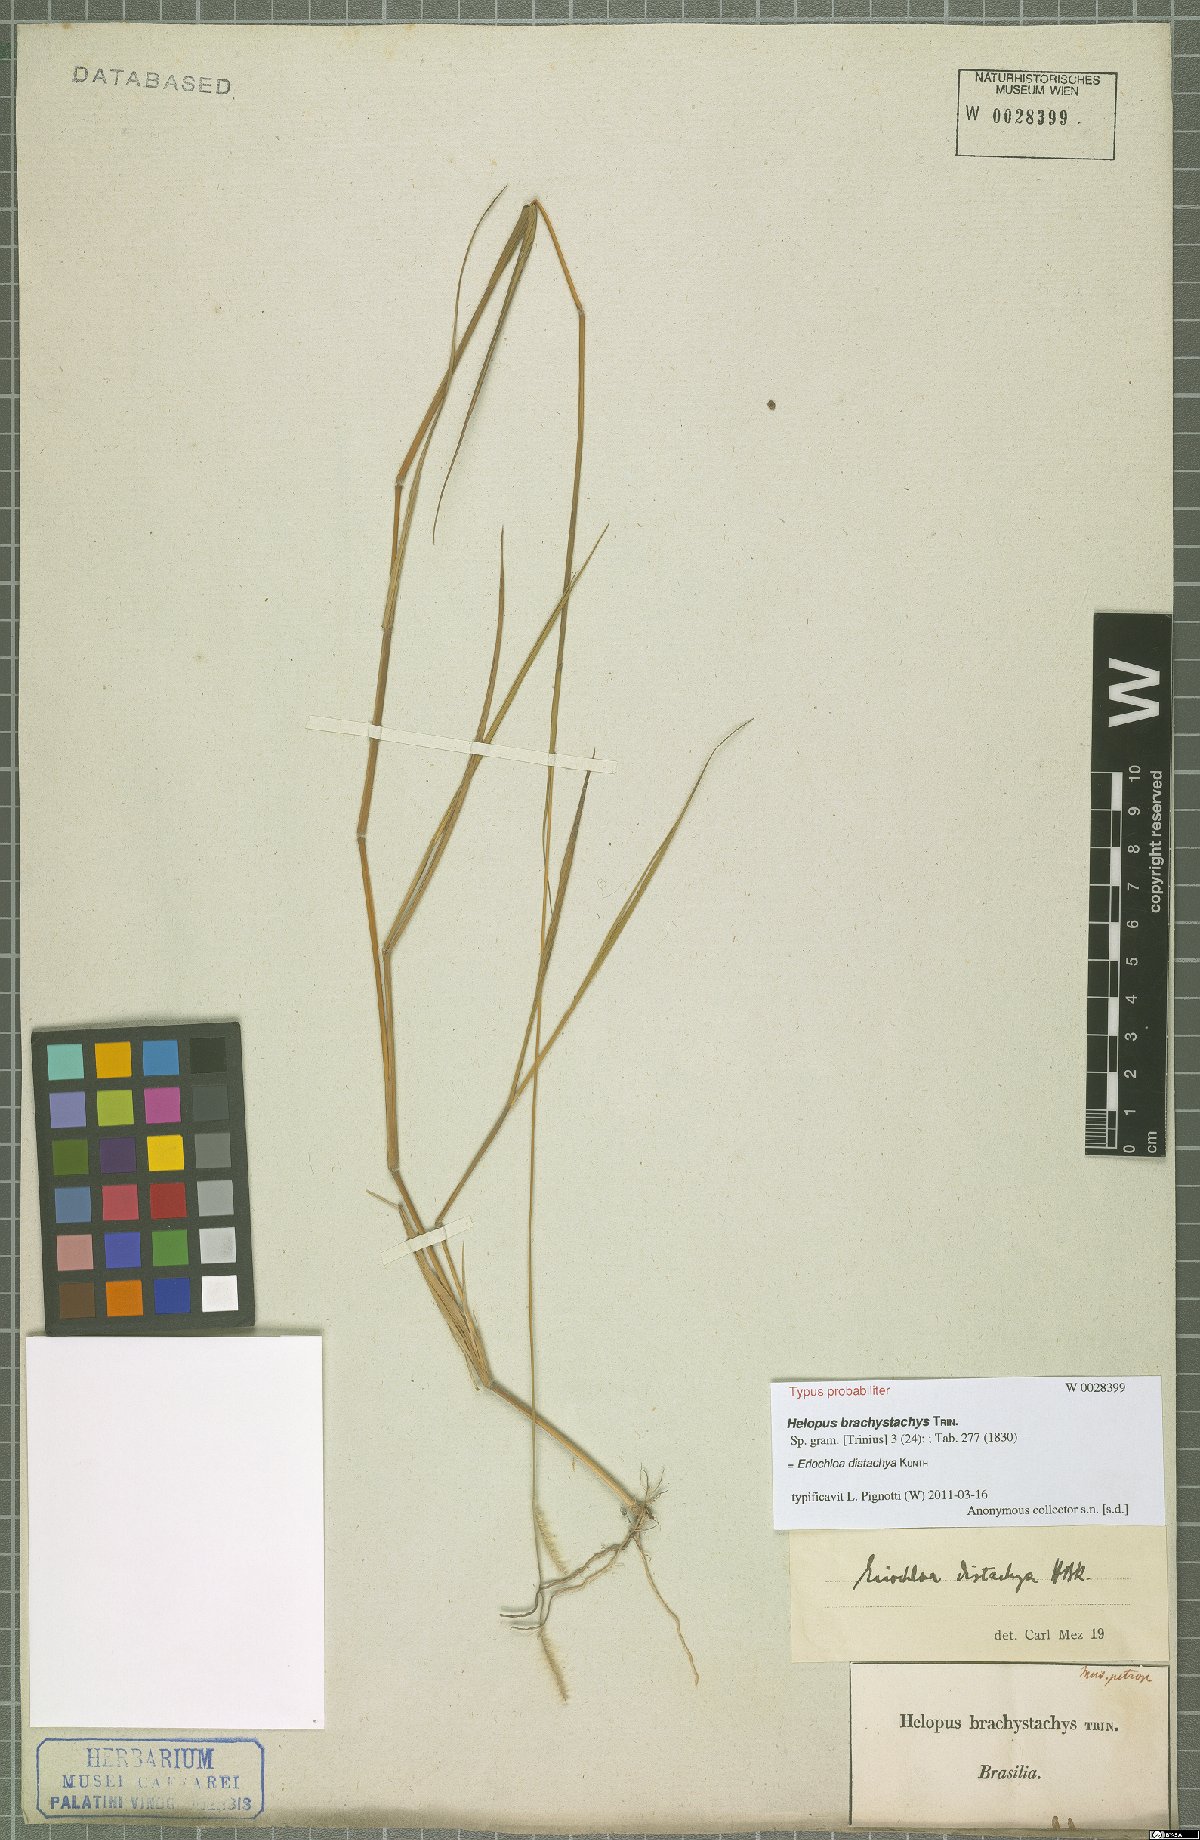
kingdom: Plantae
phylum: Tracheophyta
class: Liliopsida
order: Poales
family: Poaceae
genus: Eriochloa
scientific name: Eriochloa distachya
